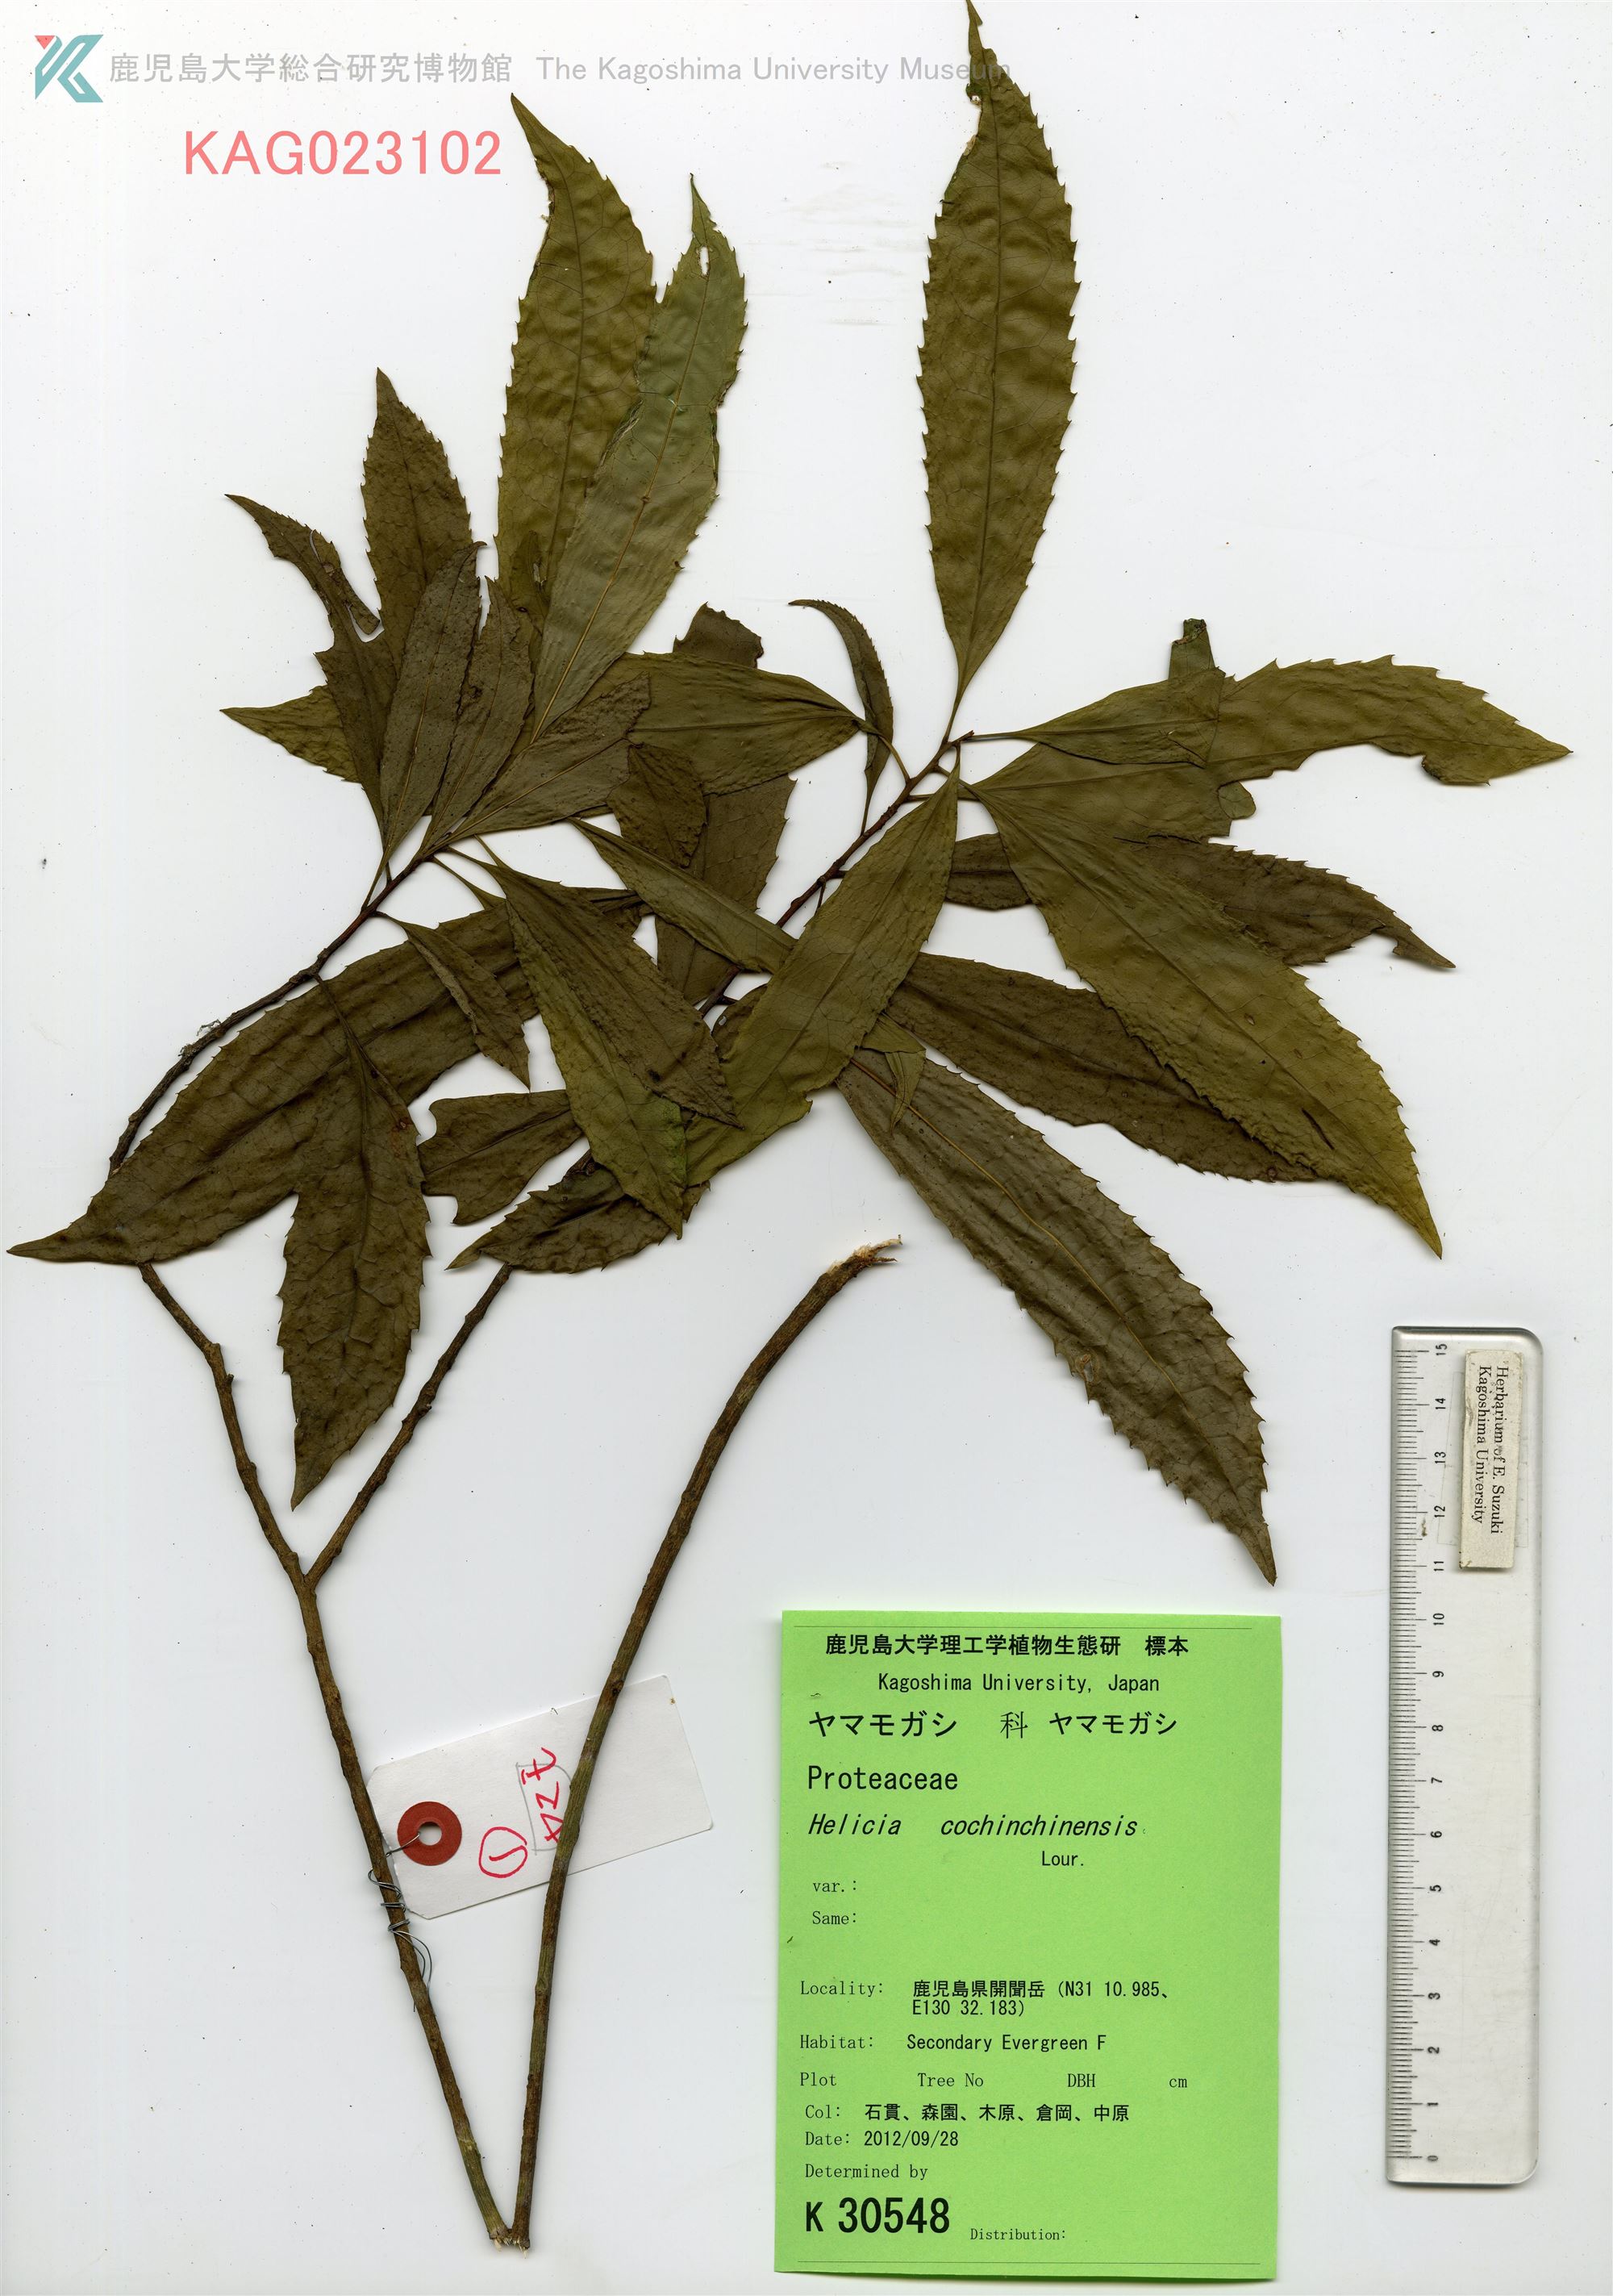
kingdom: Plantae
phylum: Tracheophyta
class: Magnoliopsida
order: Proteales
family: Proteaceae
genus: Helicia
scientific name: Helicia cochinchinensis
